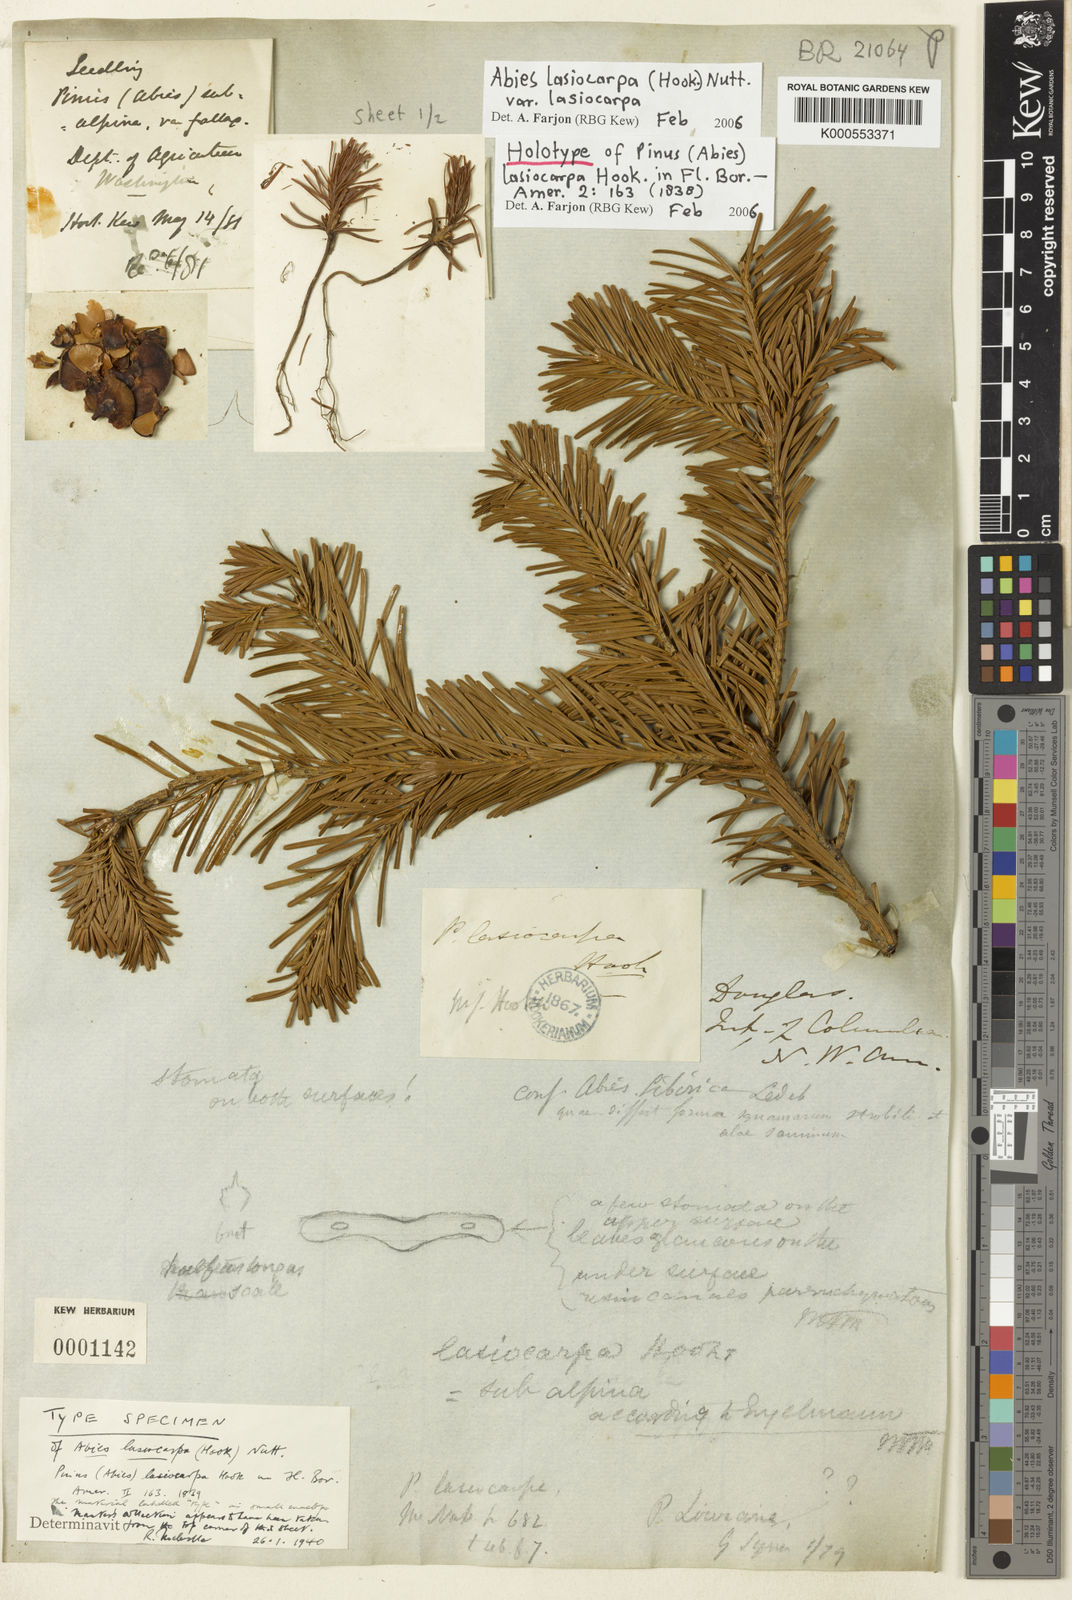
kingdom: Plantae
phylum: Tracheophyta
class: Pinopsida
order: Pinales
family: Pinaceae
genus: Abies
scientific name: Abies lasiocarpa
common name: Subalpine fir
